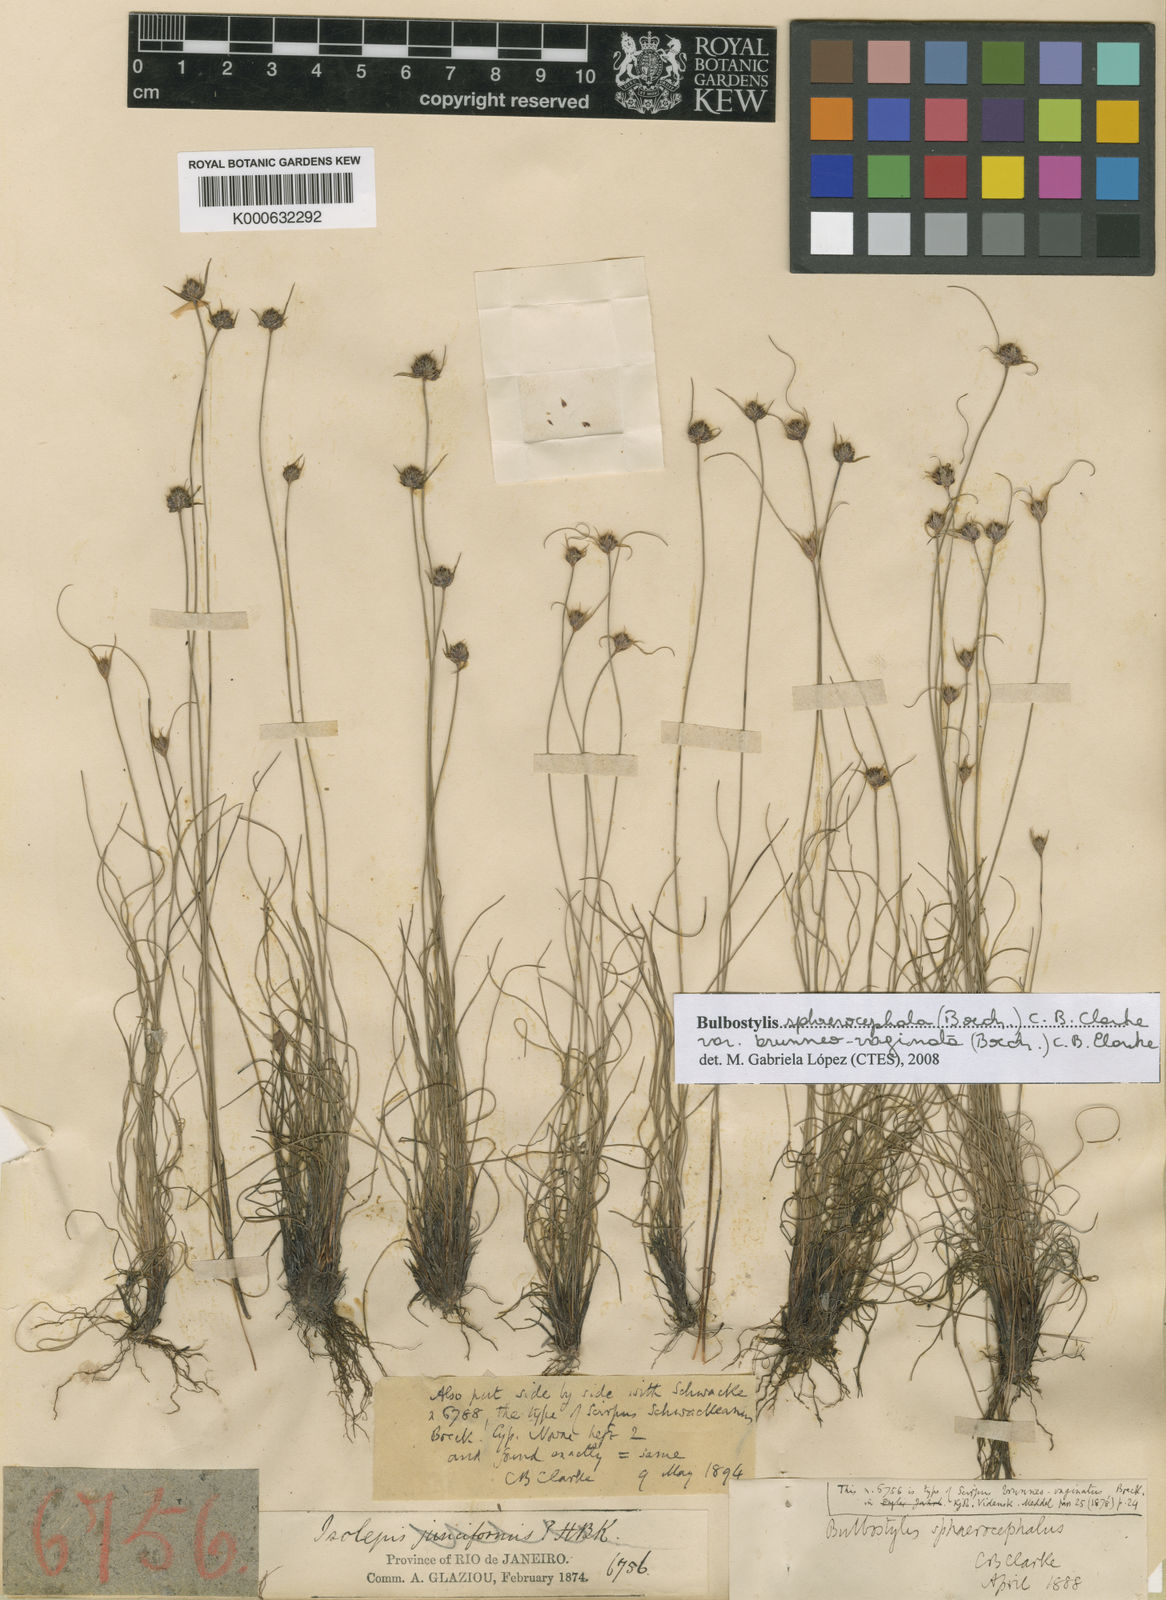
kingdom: Plantae
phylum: Tracheophyta
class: Liliopsida
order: Poales
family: Cyperaceae
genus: Bulbostylis
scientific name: Bulbostylis sphaerocephala
